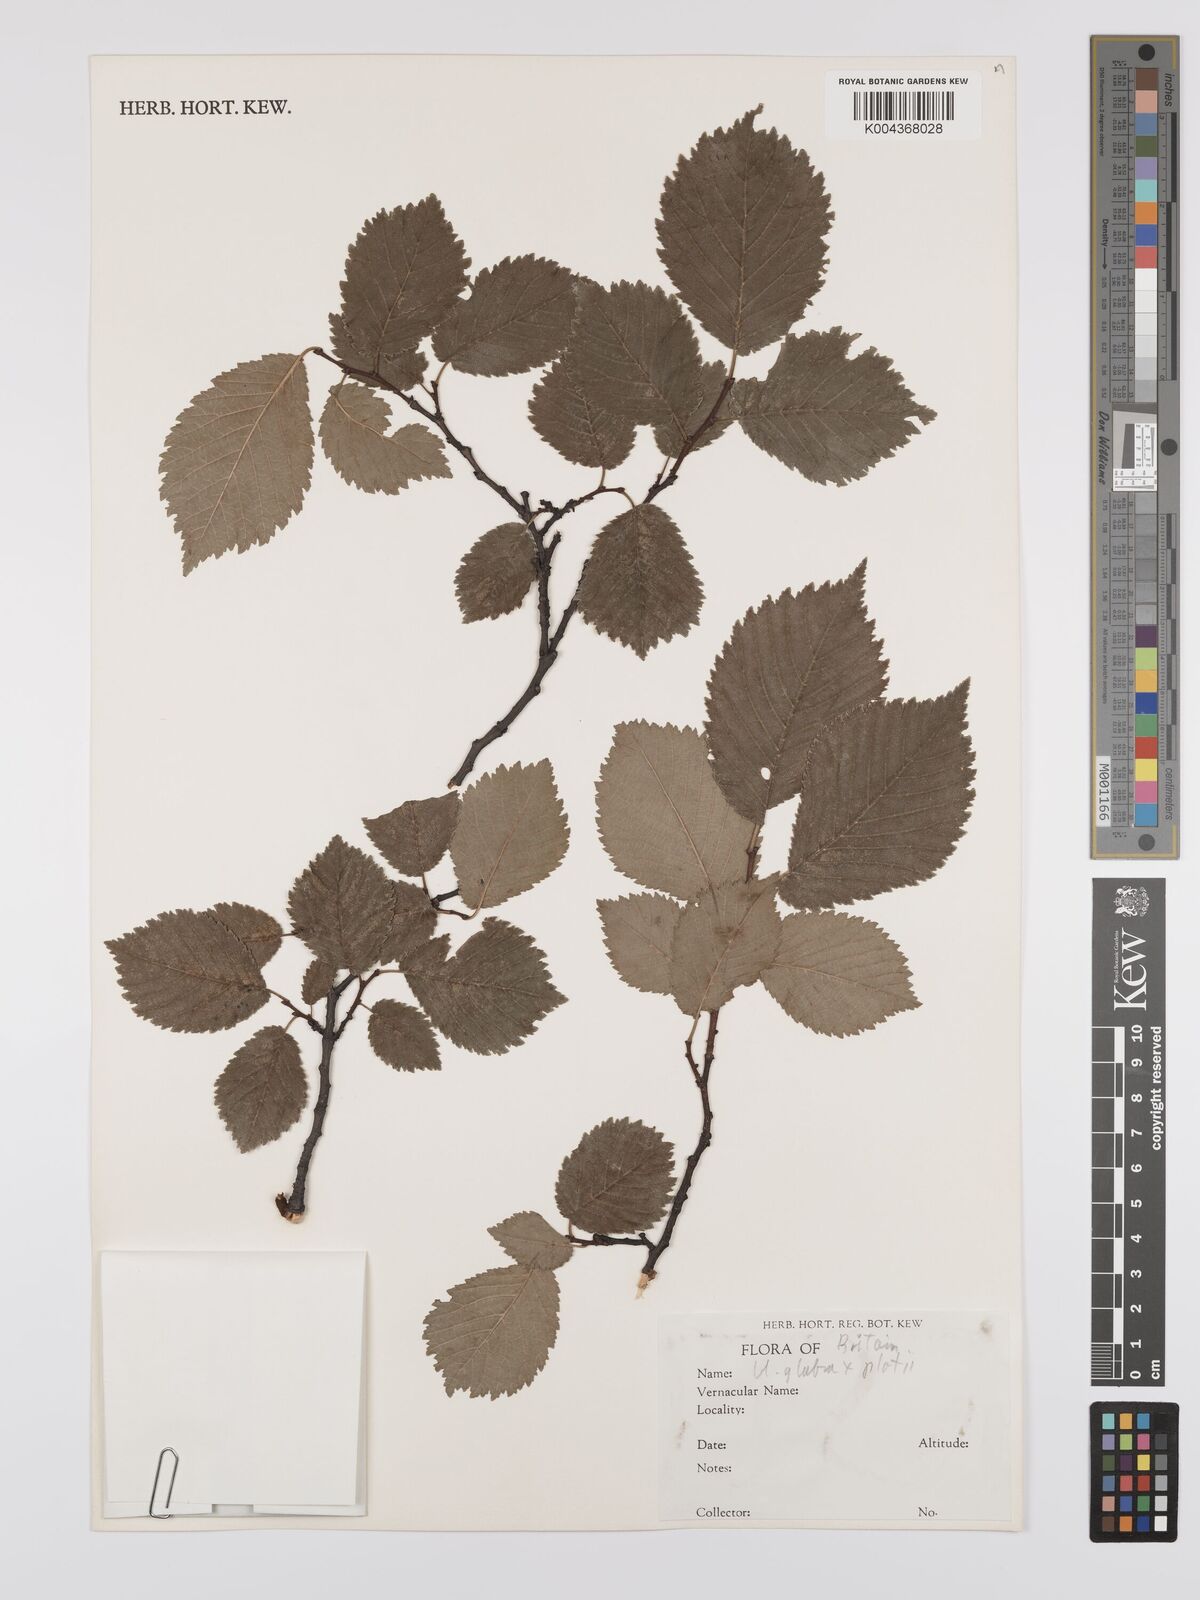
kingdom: Plantae
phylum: Tracheophyta
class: Magnoliopsida
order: Rosales
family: Ulmaceae
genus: Ulmus
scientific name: Ulmus
